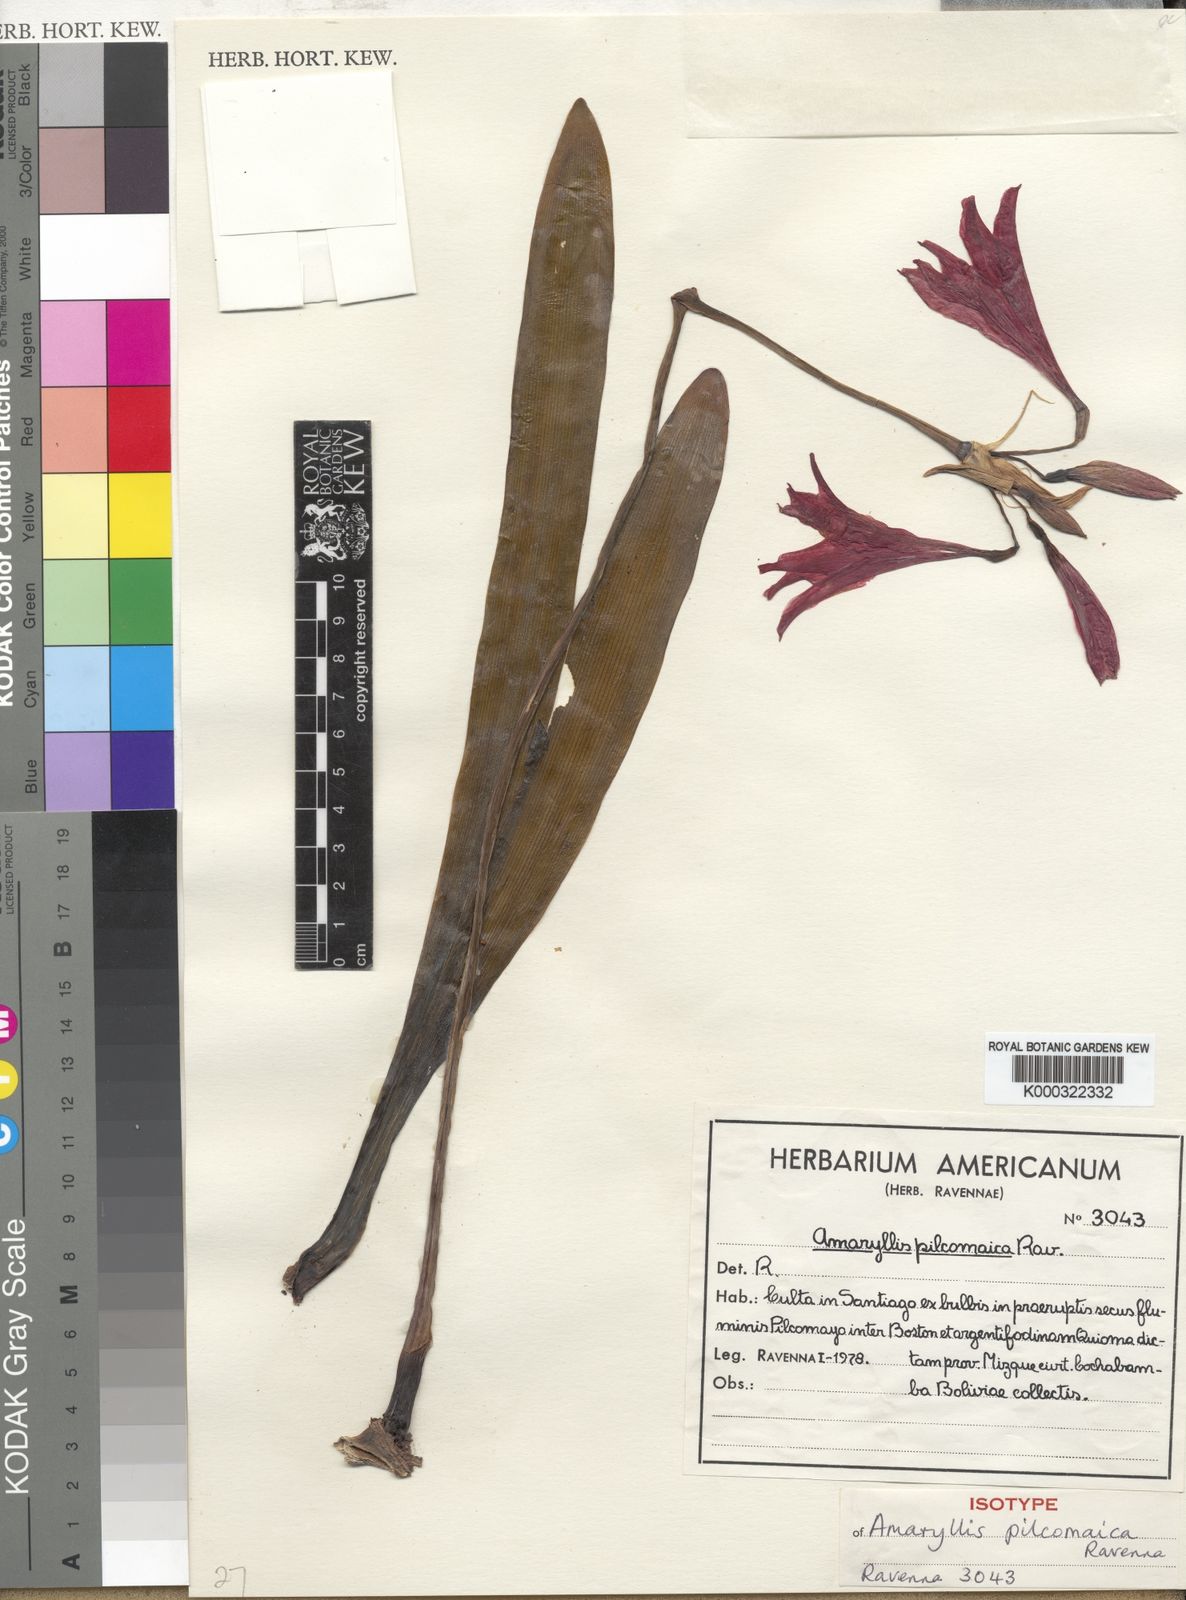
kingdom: Plantae
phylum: Tracheophyta
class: Liliopsida
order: Asparagales
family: Amaryllidaceae
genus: Hippeastrum
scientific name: Hippeastrum mollevillquense
